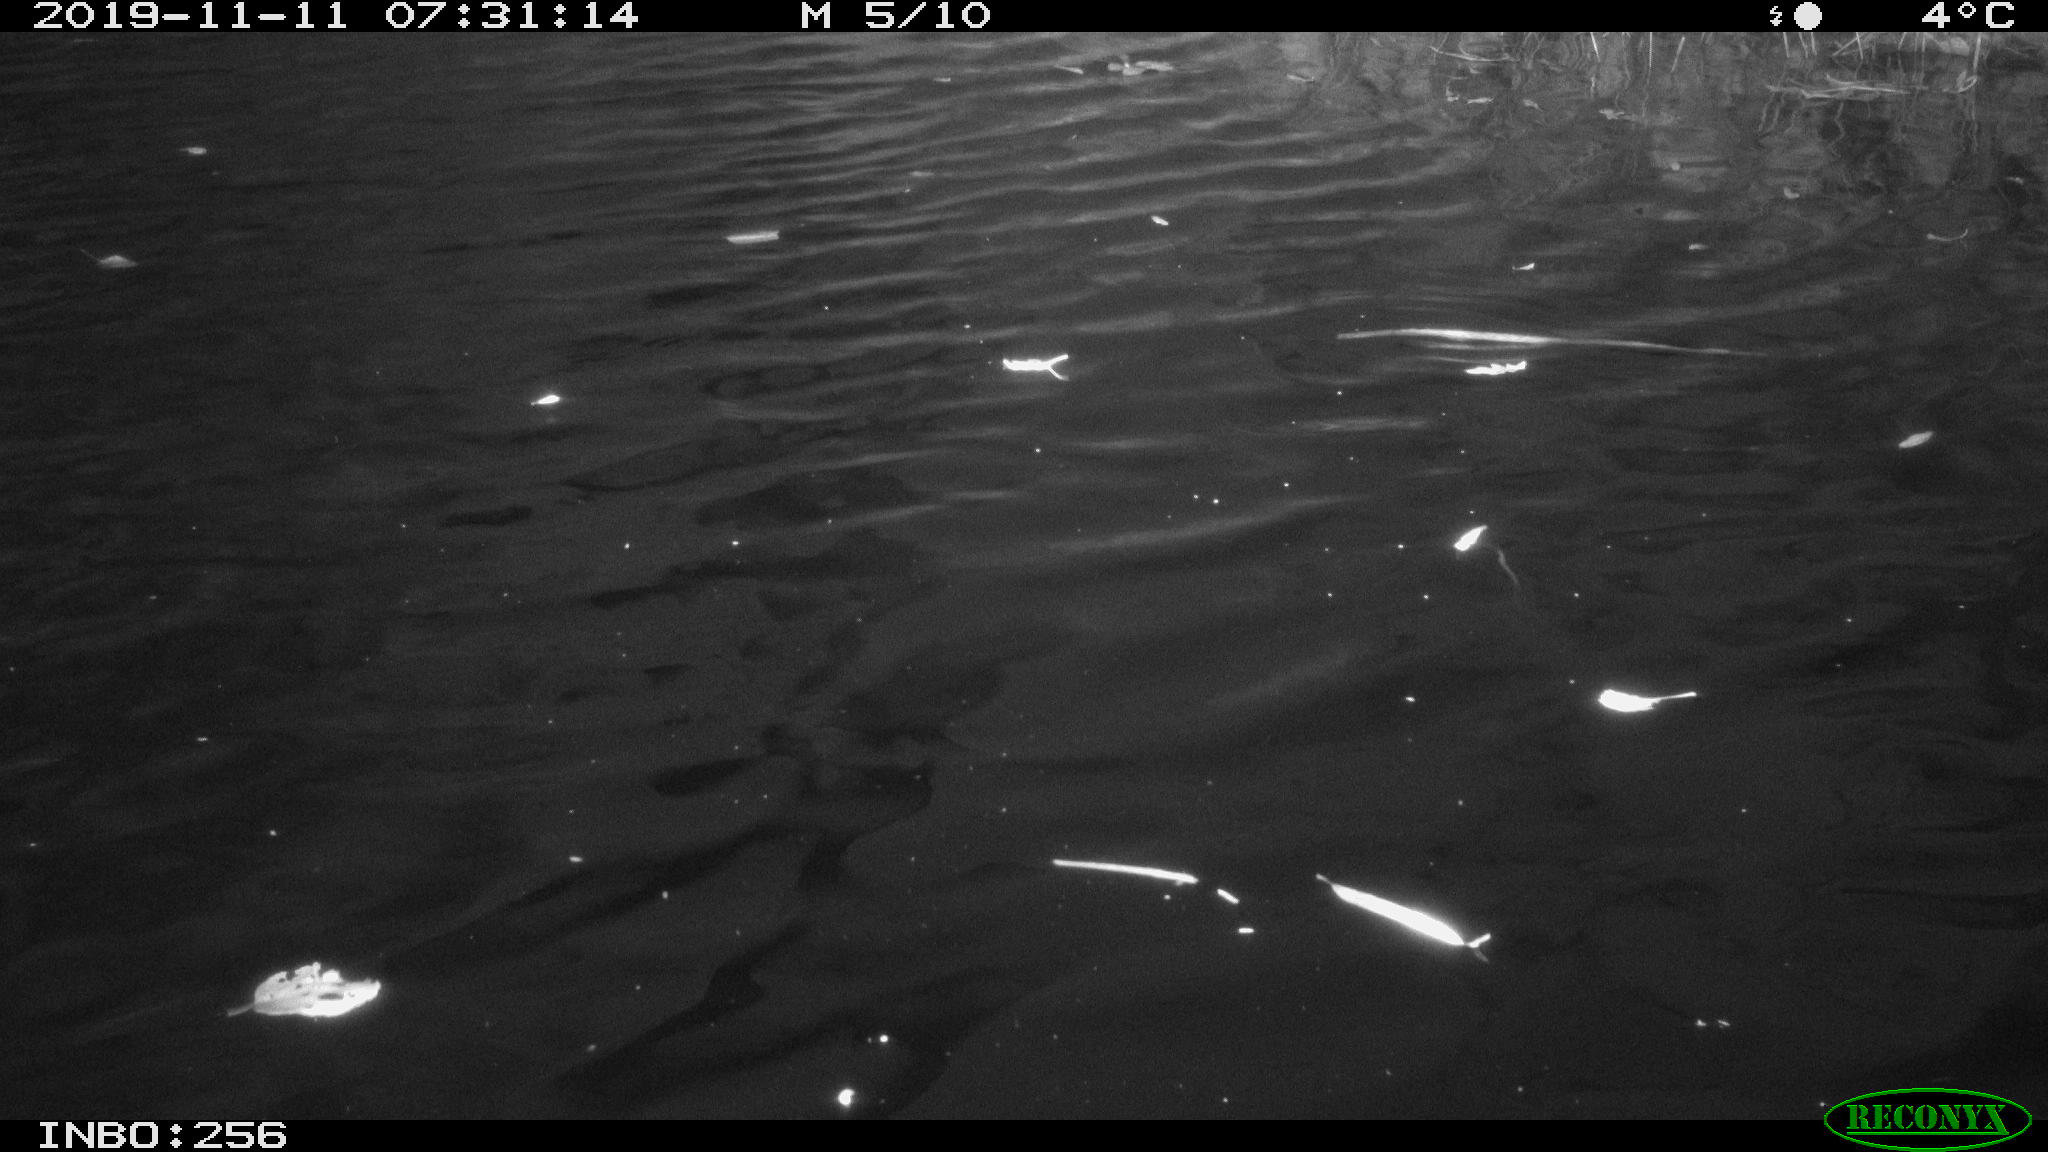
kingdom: Animalia
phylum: Chordata
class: Aves
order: Gruiformes
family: Rallidae
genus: Gallinula
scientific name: Gallinula chloropus
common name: Common moorhen
